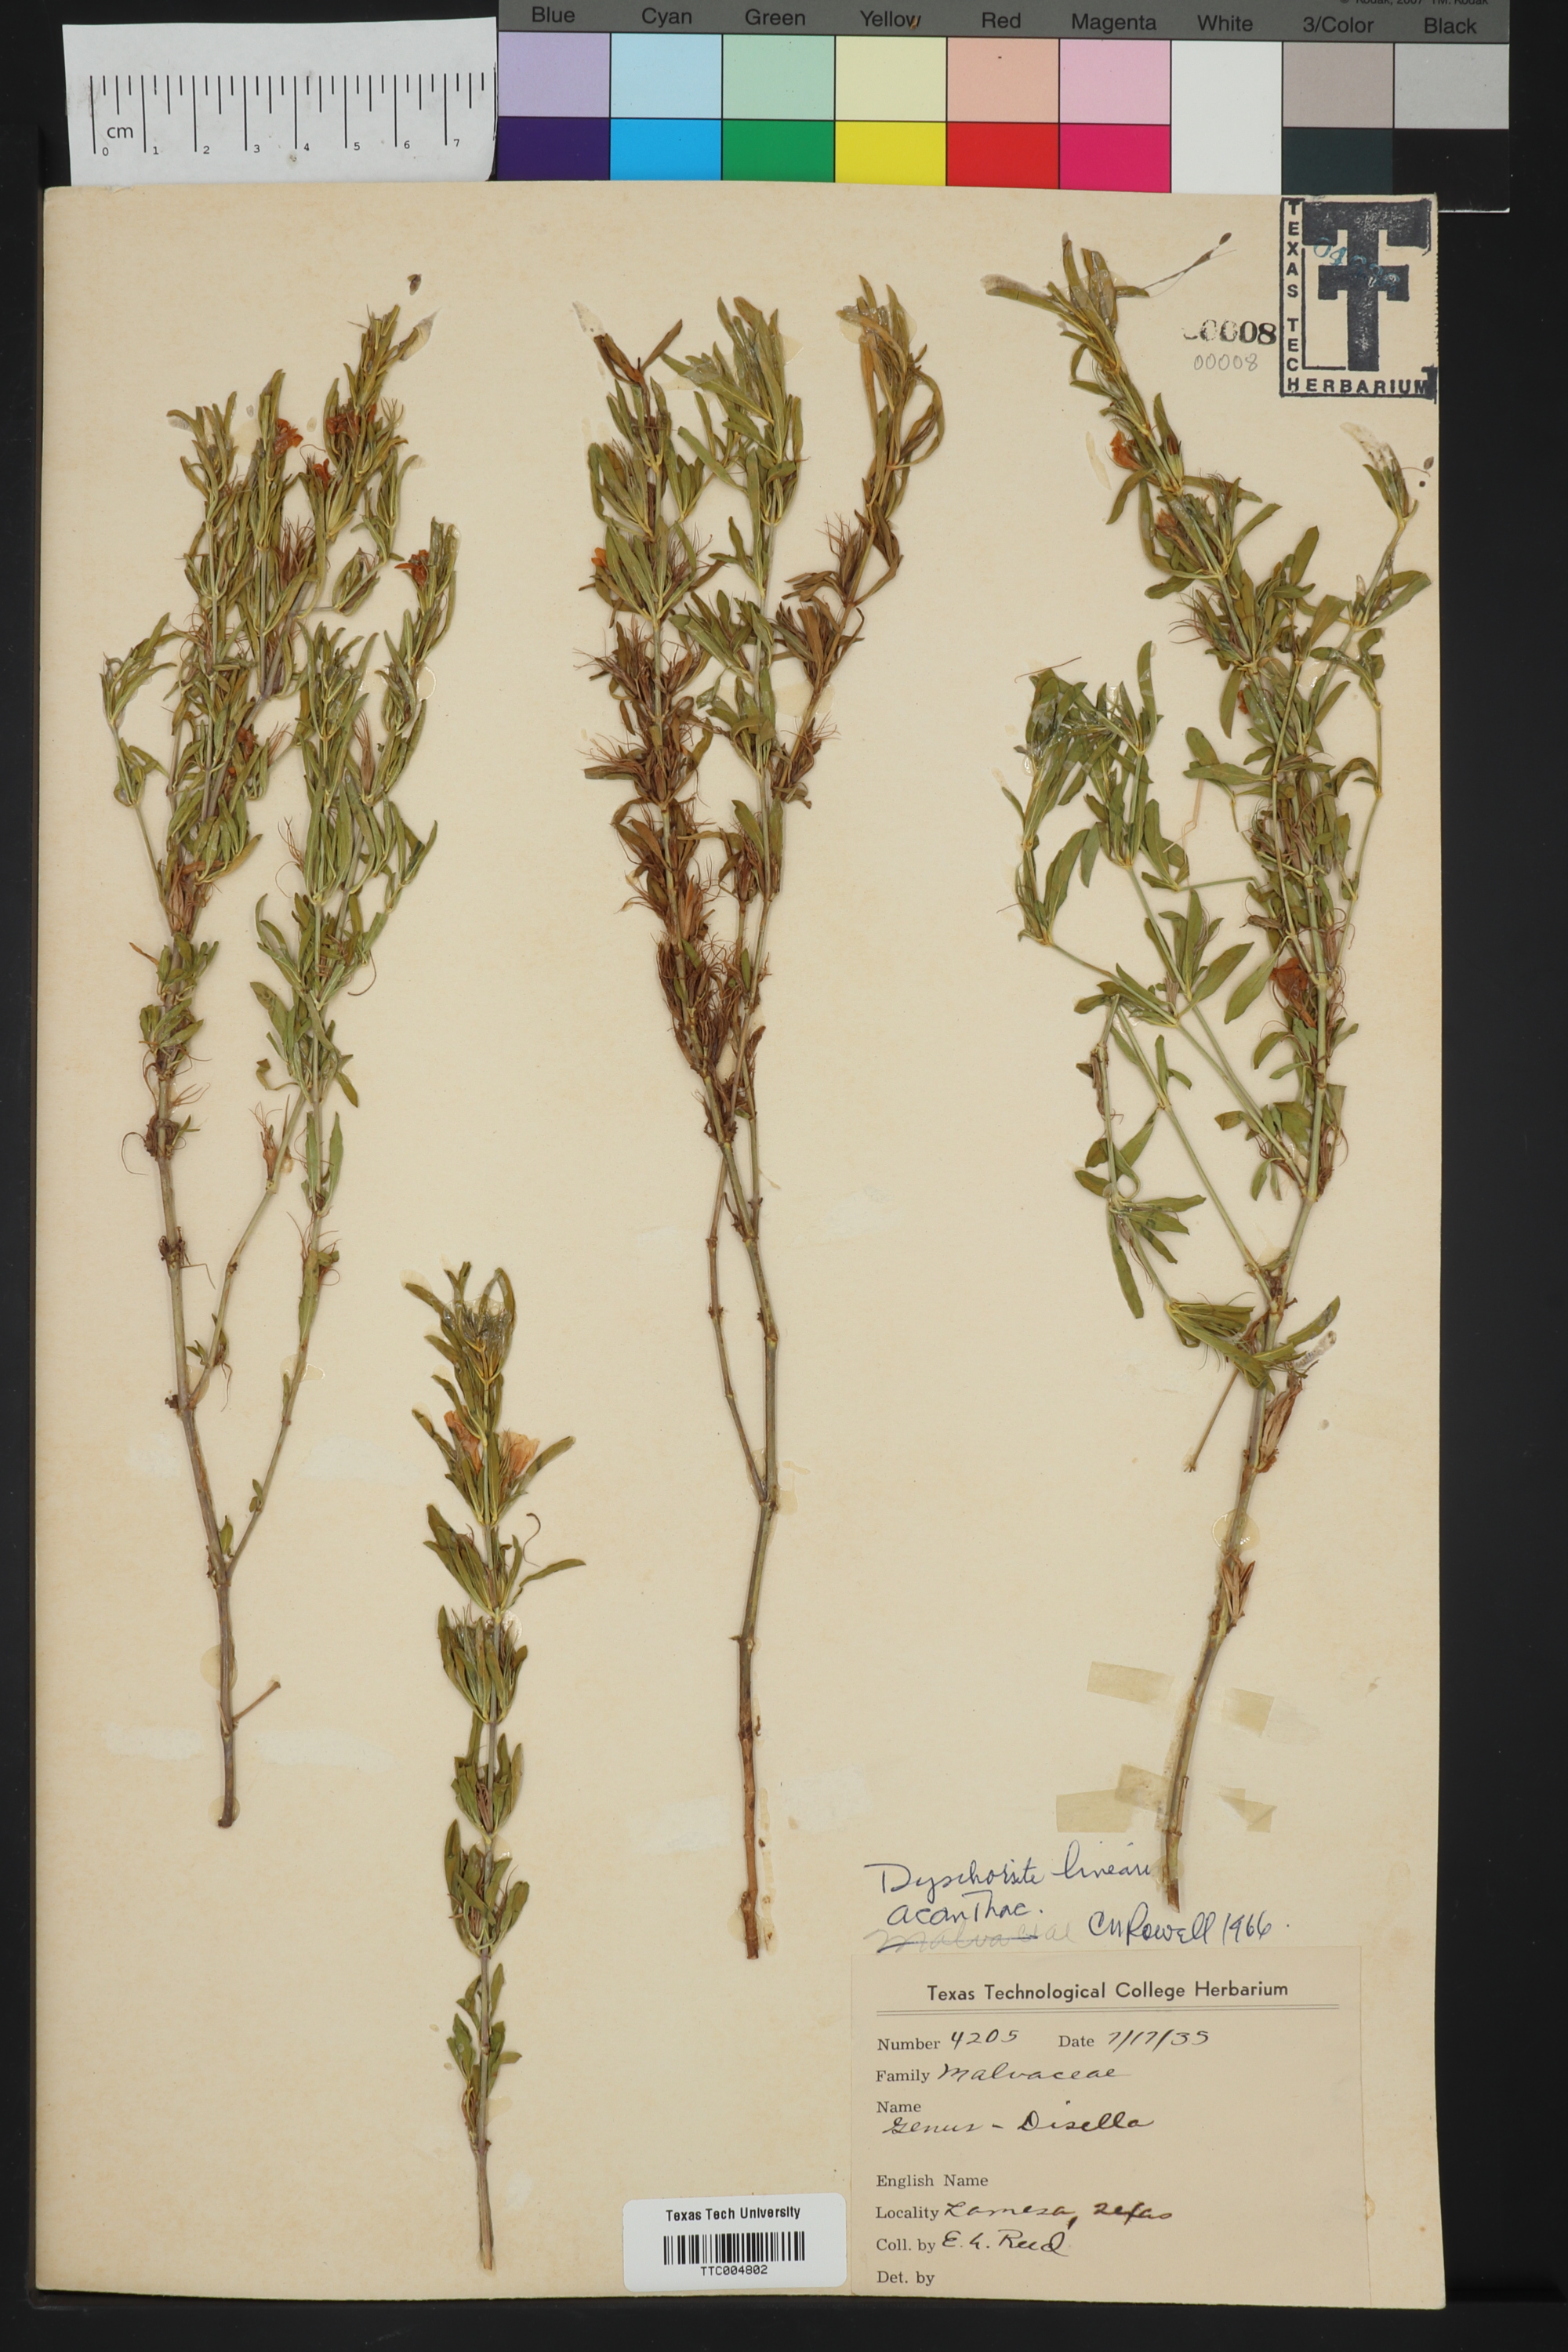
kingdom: Plantae
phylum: Tracheophyta
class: Magnoliopsida
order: Lamiales
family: Acanthaceae
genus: Dyschoriste
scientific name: Dyschoriste linearis
